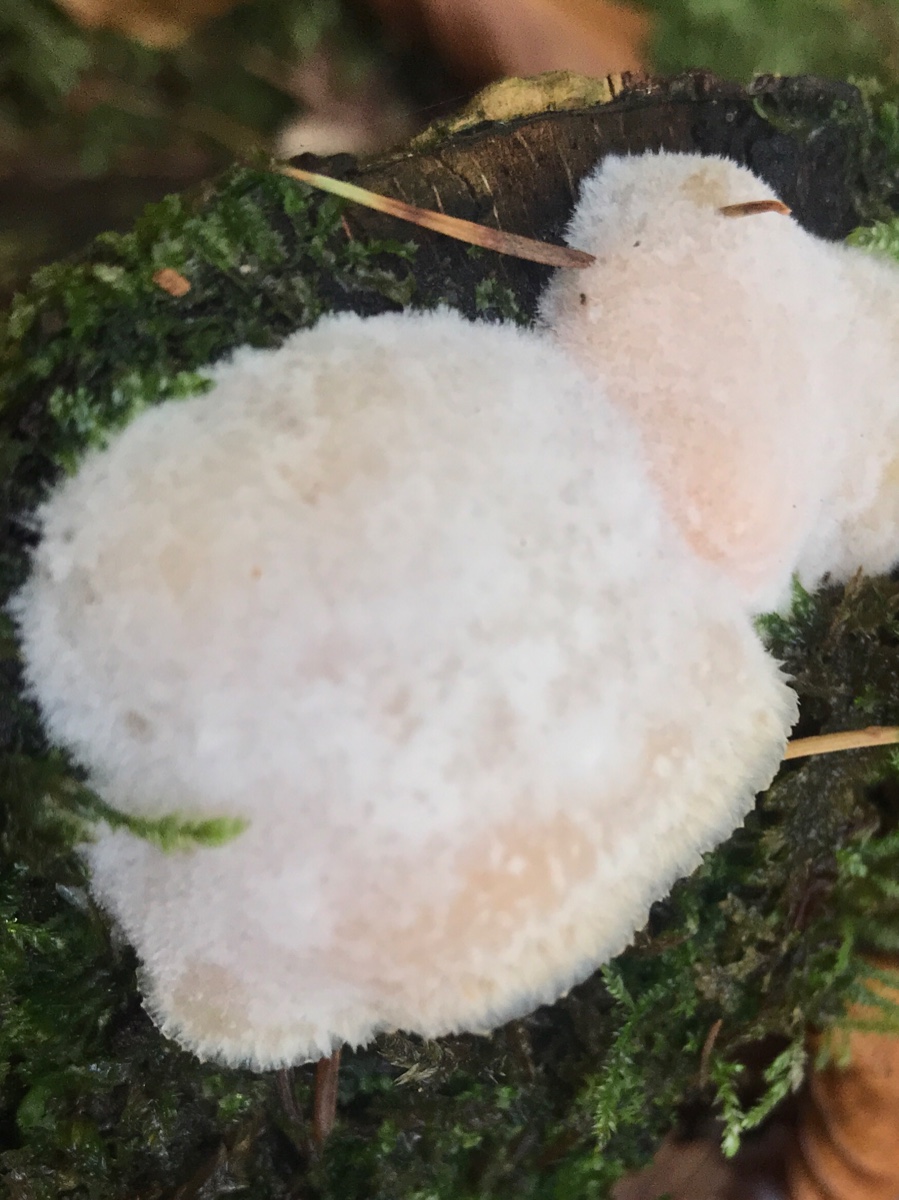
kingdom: Fungi
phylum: Basidiomycota
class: Agaricomycetes
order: Polyporales
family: Meruliaceae
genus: Phlebia
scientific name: Phlebia tremellosa
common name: bævrende åresvamp
